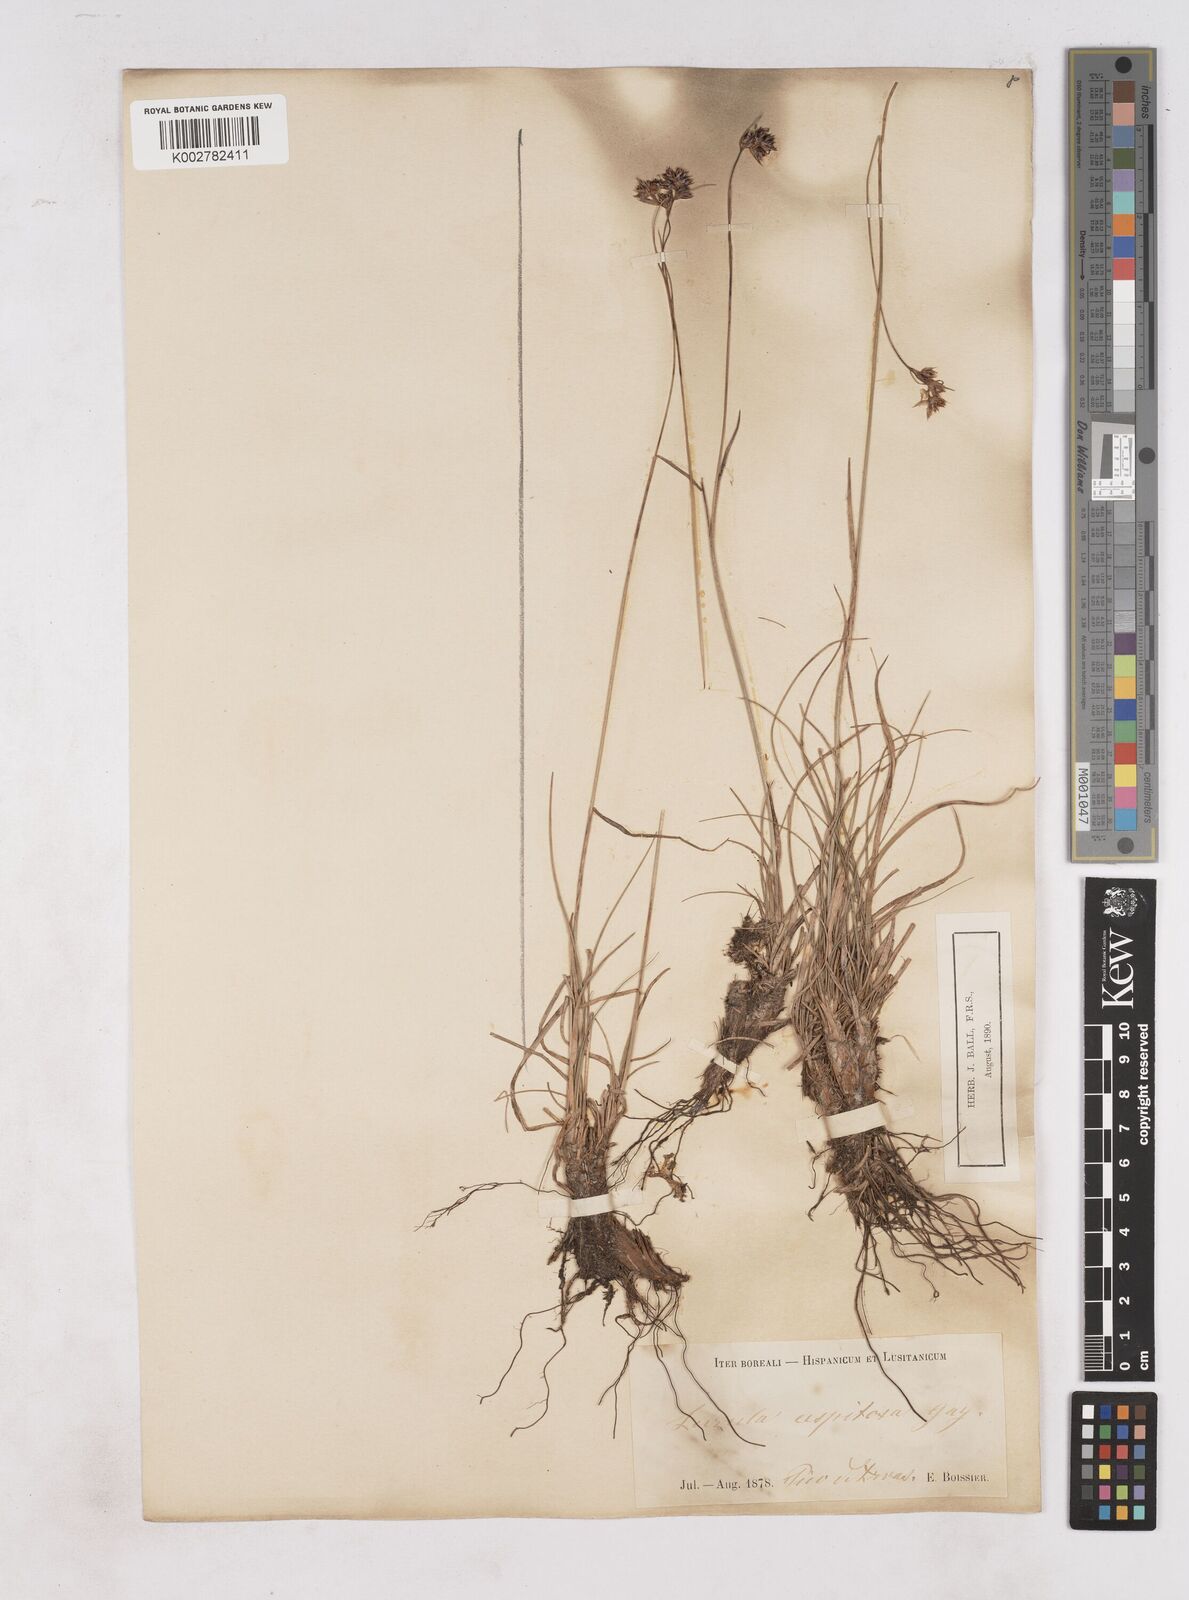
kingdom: Plantae
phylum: Tracheophyta
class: Liliopsida
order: Poales
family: Juncaceae
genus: Luzula
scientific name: Luzula caespitosa
